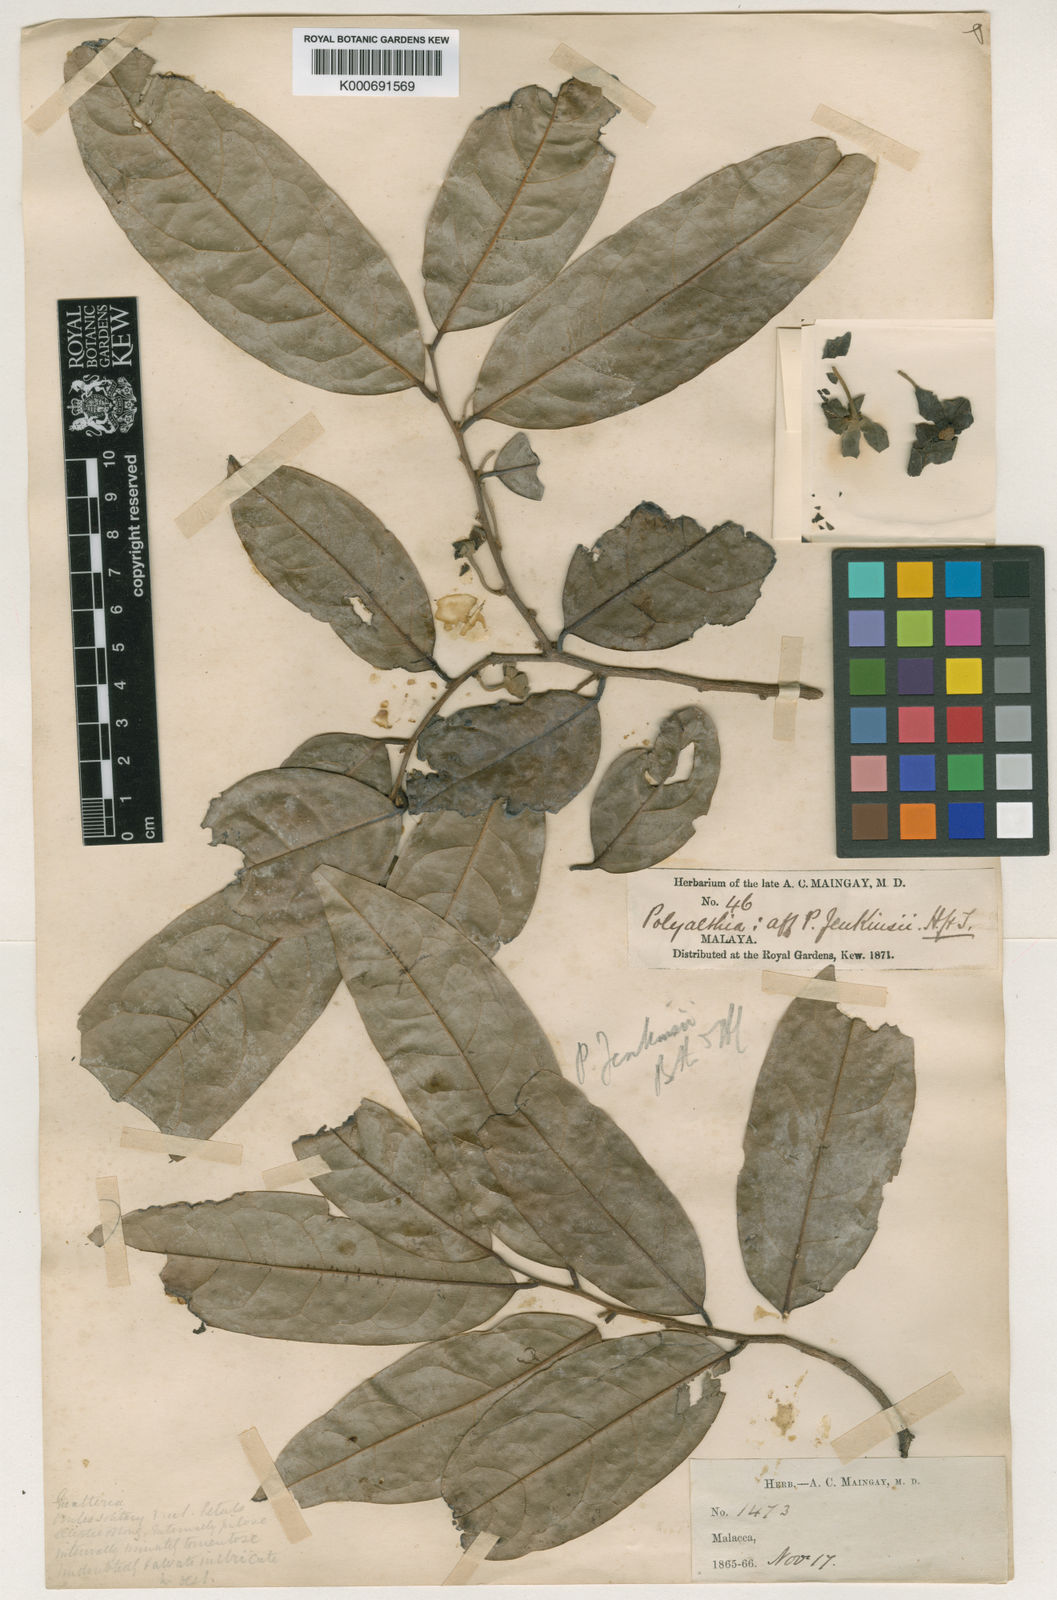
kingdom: Plantae
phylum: Tracheophyta
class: Magnoliopsida
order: Magnoliales
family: Annonaceae
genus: Hubera
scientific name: Hubera jenkinsii
